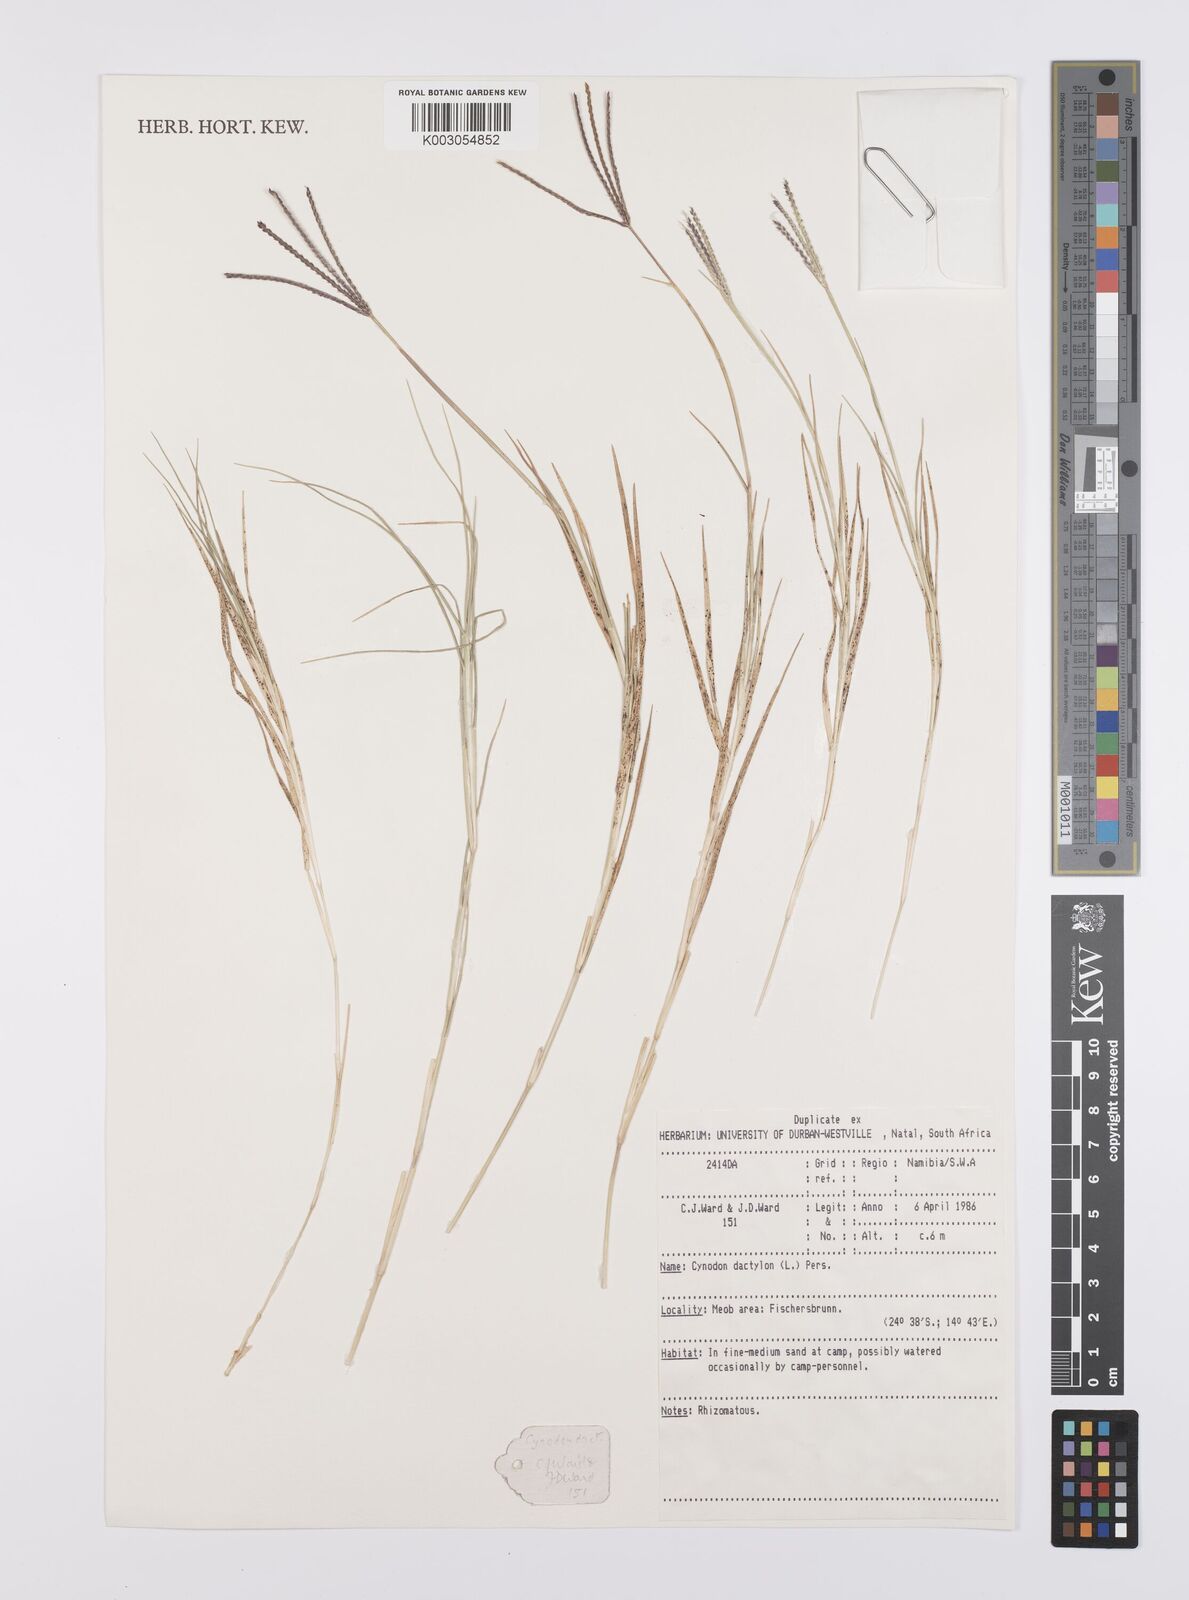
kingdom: Plantae
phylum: Tracheophyta
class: Liliopsida
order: Poales
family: Poaceae
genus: Cynodon
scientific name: Cynodon dactylon
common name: Bermuda grass
